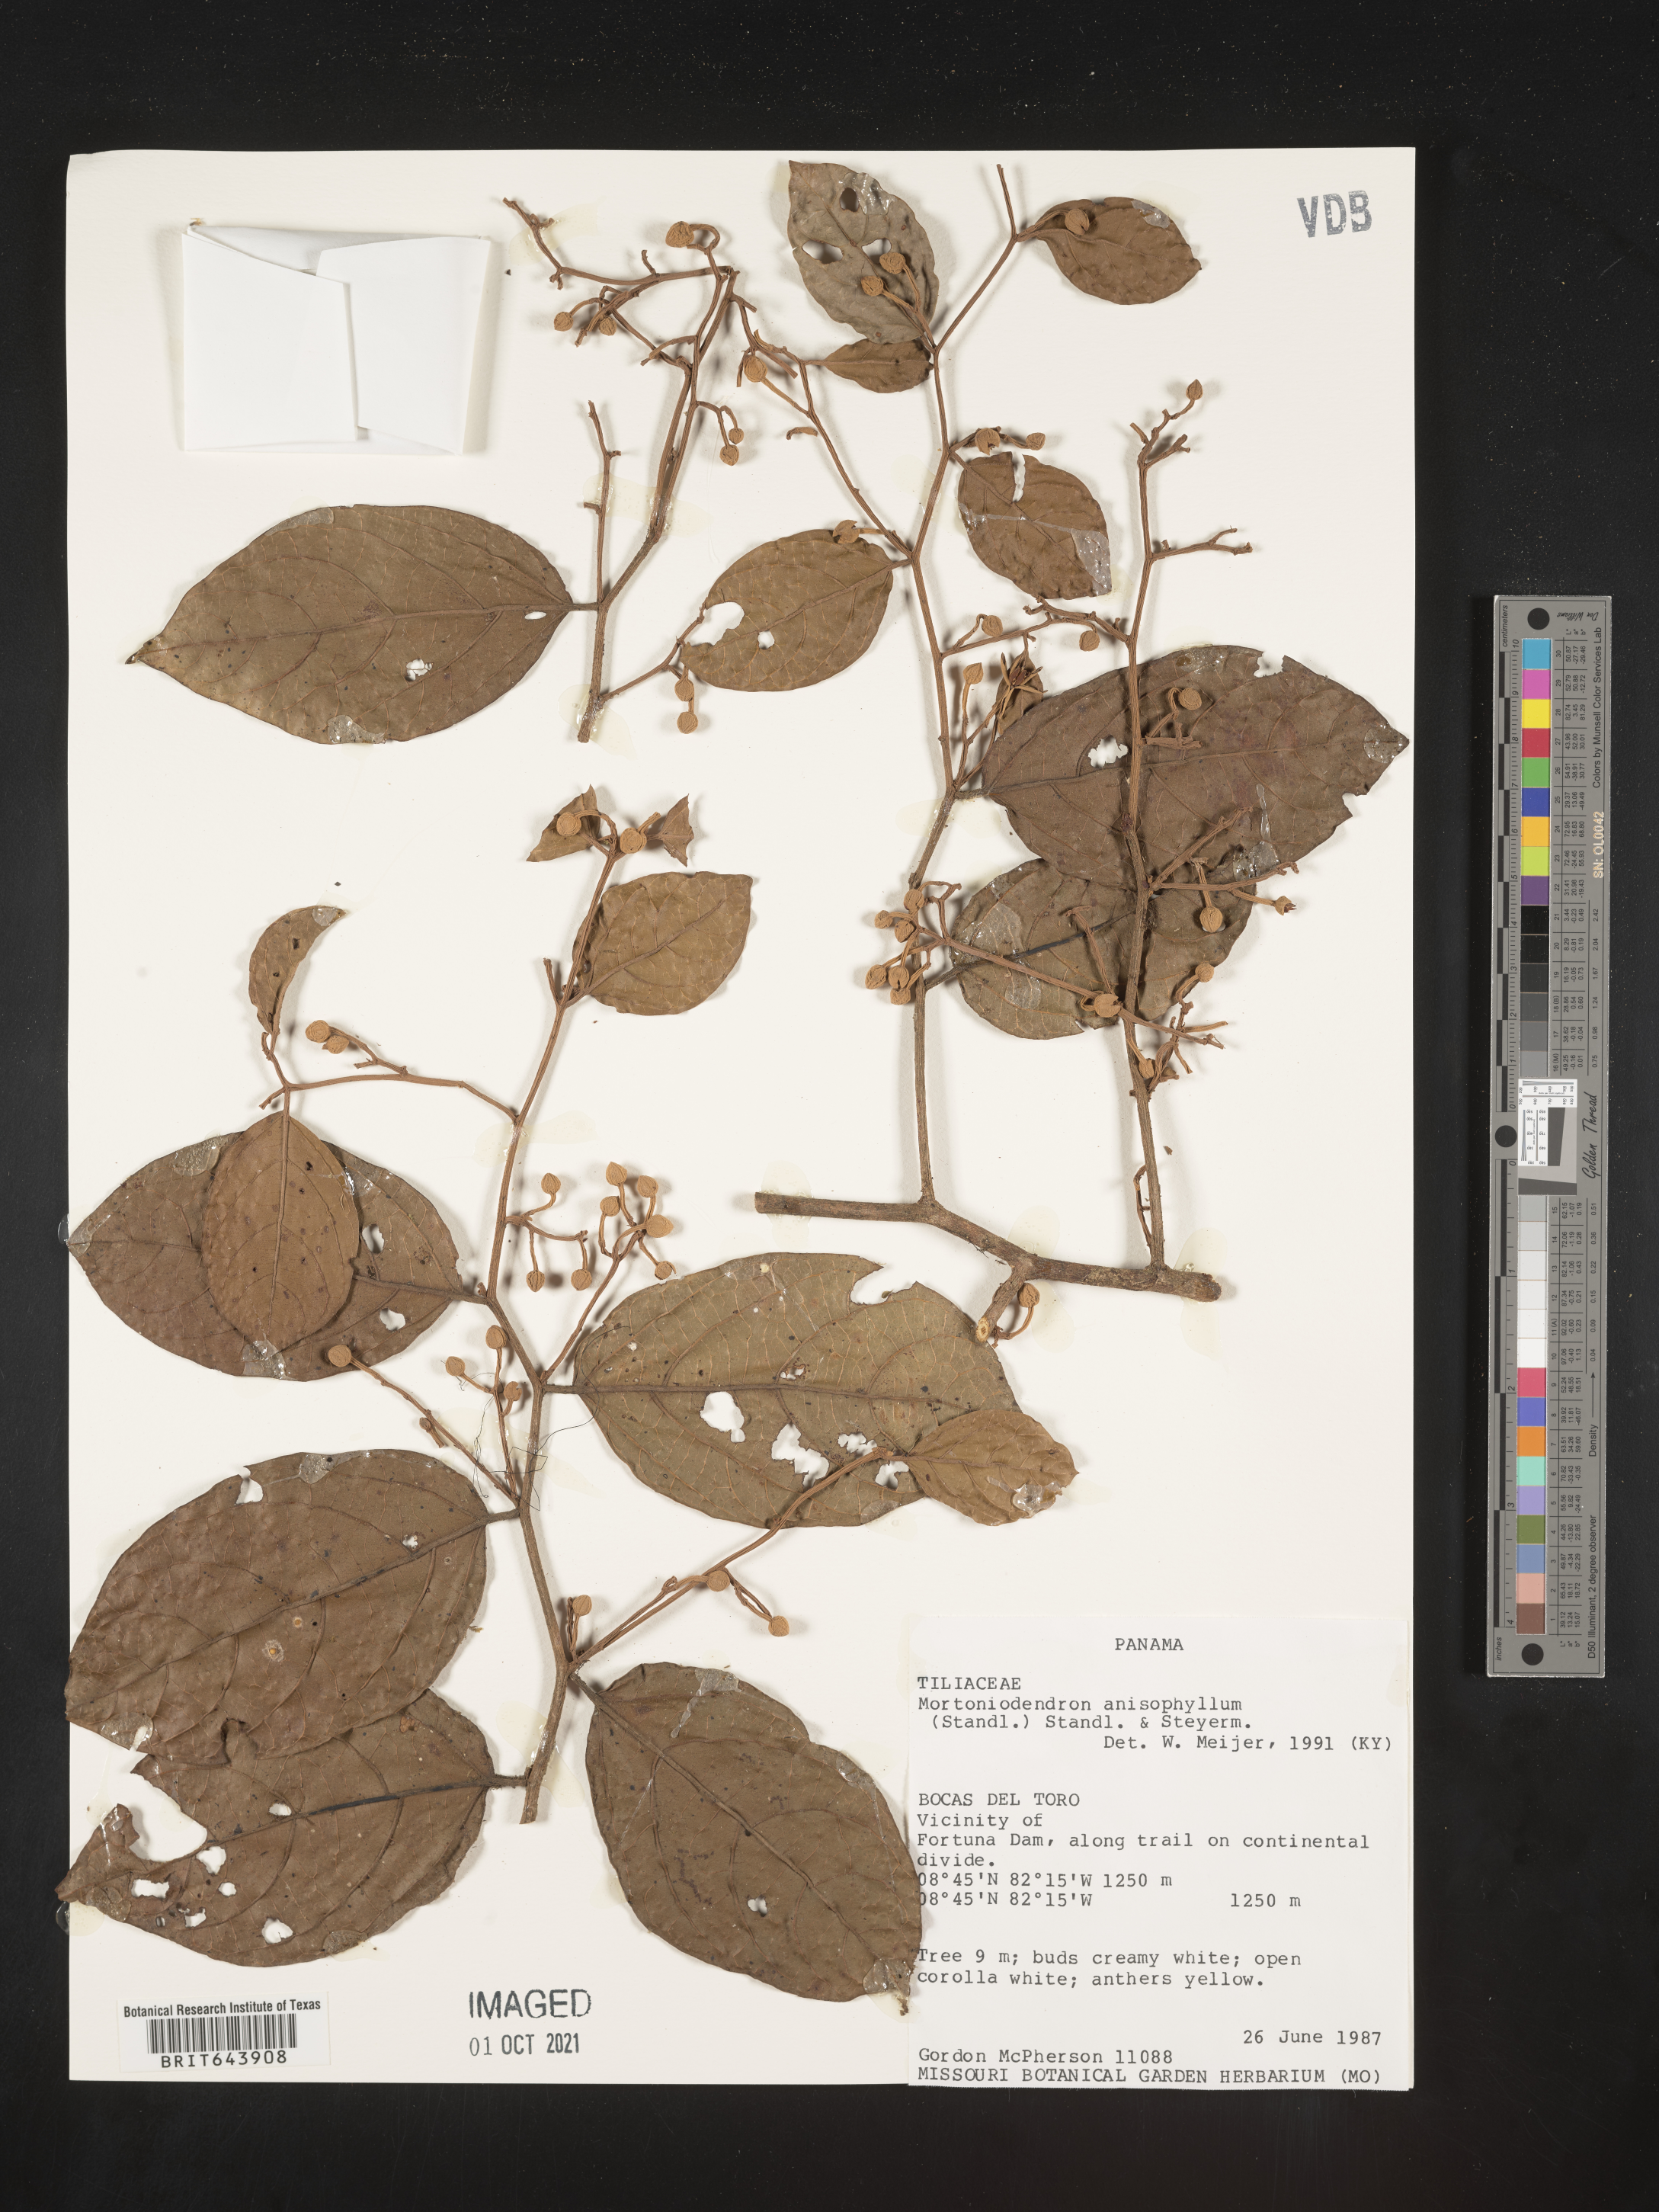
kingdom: Plantae
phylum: Tracheophyta
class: Magnoliopsida
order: Malvales
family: Malvaceae
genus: Mortoniodendron
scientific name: Mortoniodendron
